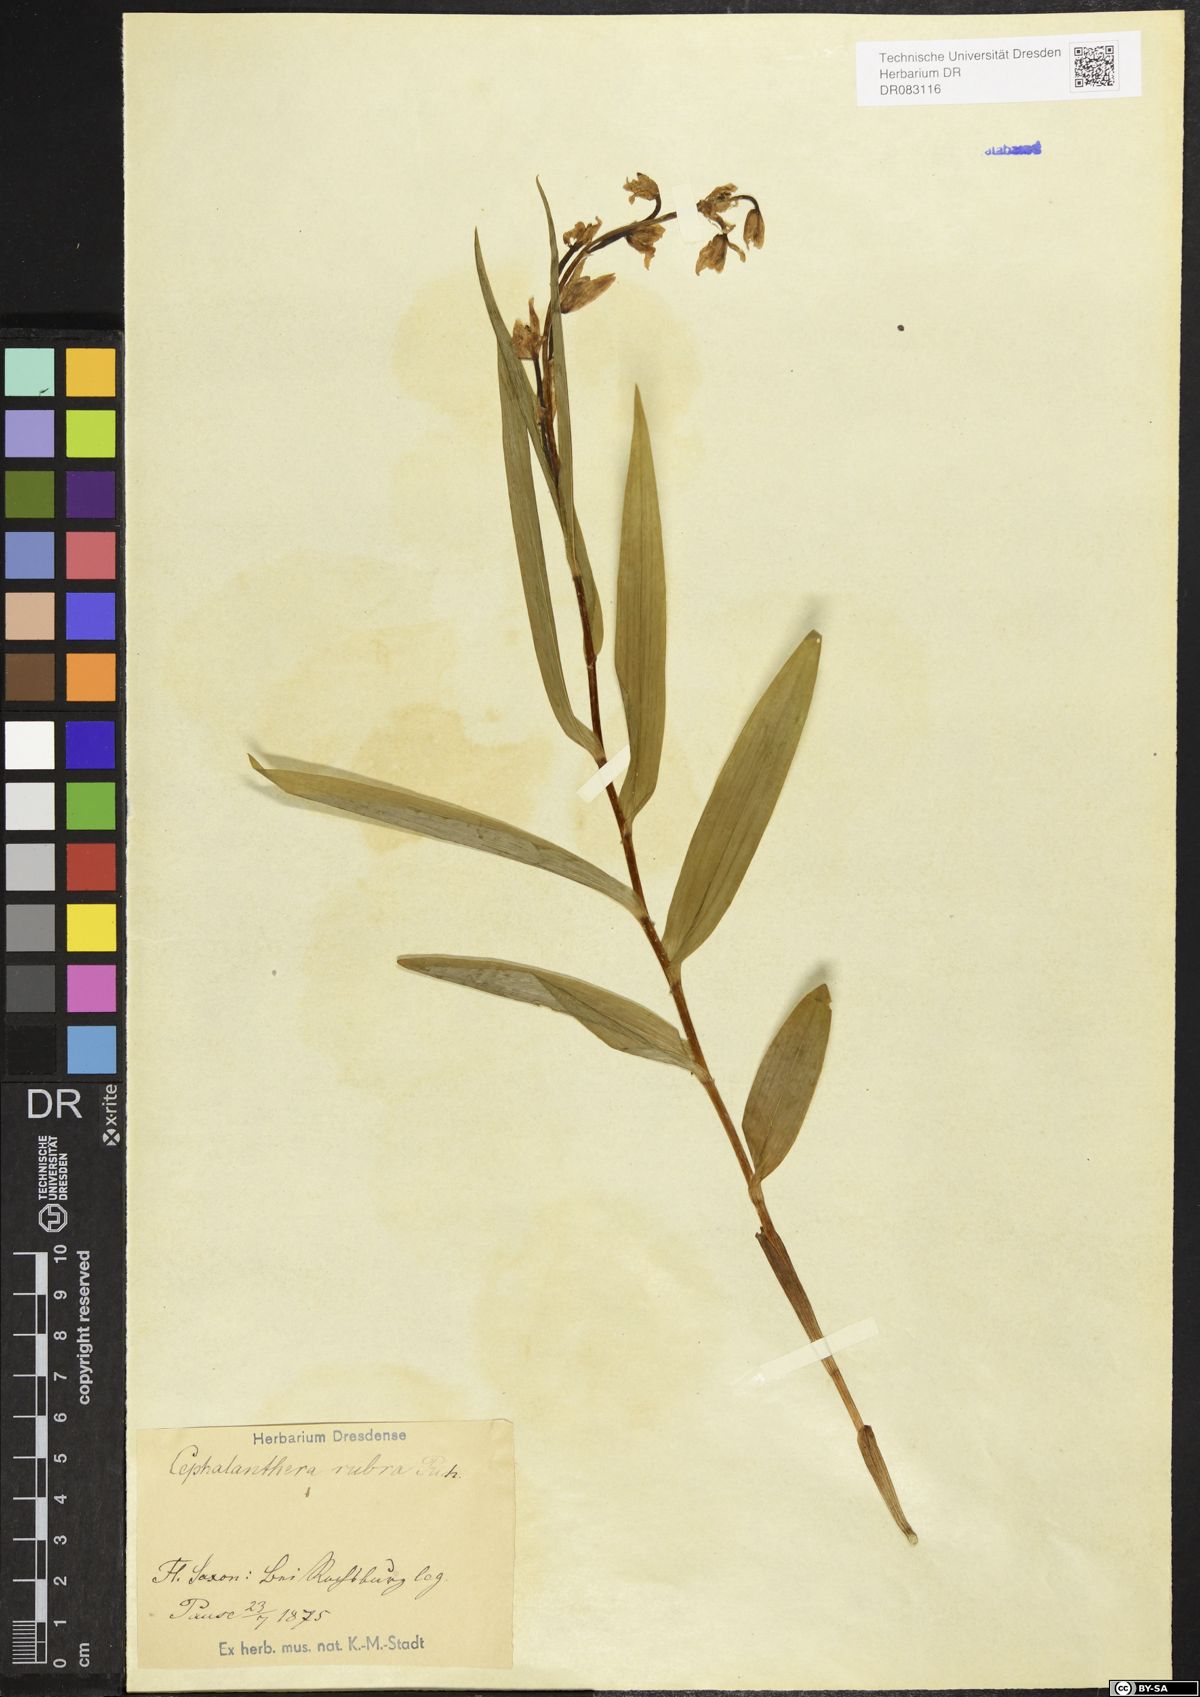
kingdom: Plantae
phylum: Tracheophyta
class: Liliopsida
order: Asparagales
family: Orchidaceae
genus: Cephalanthera
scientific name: Cephalanthera rubra
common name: Red helleborine
